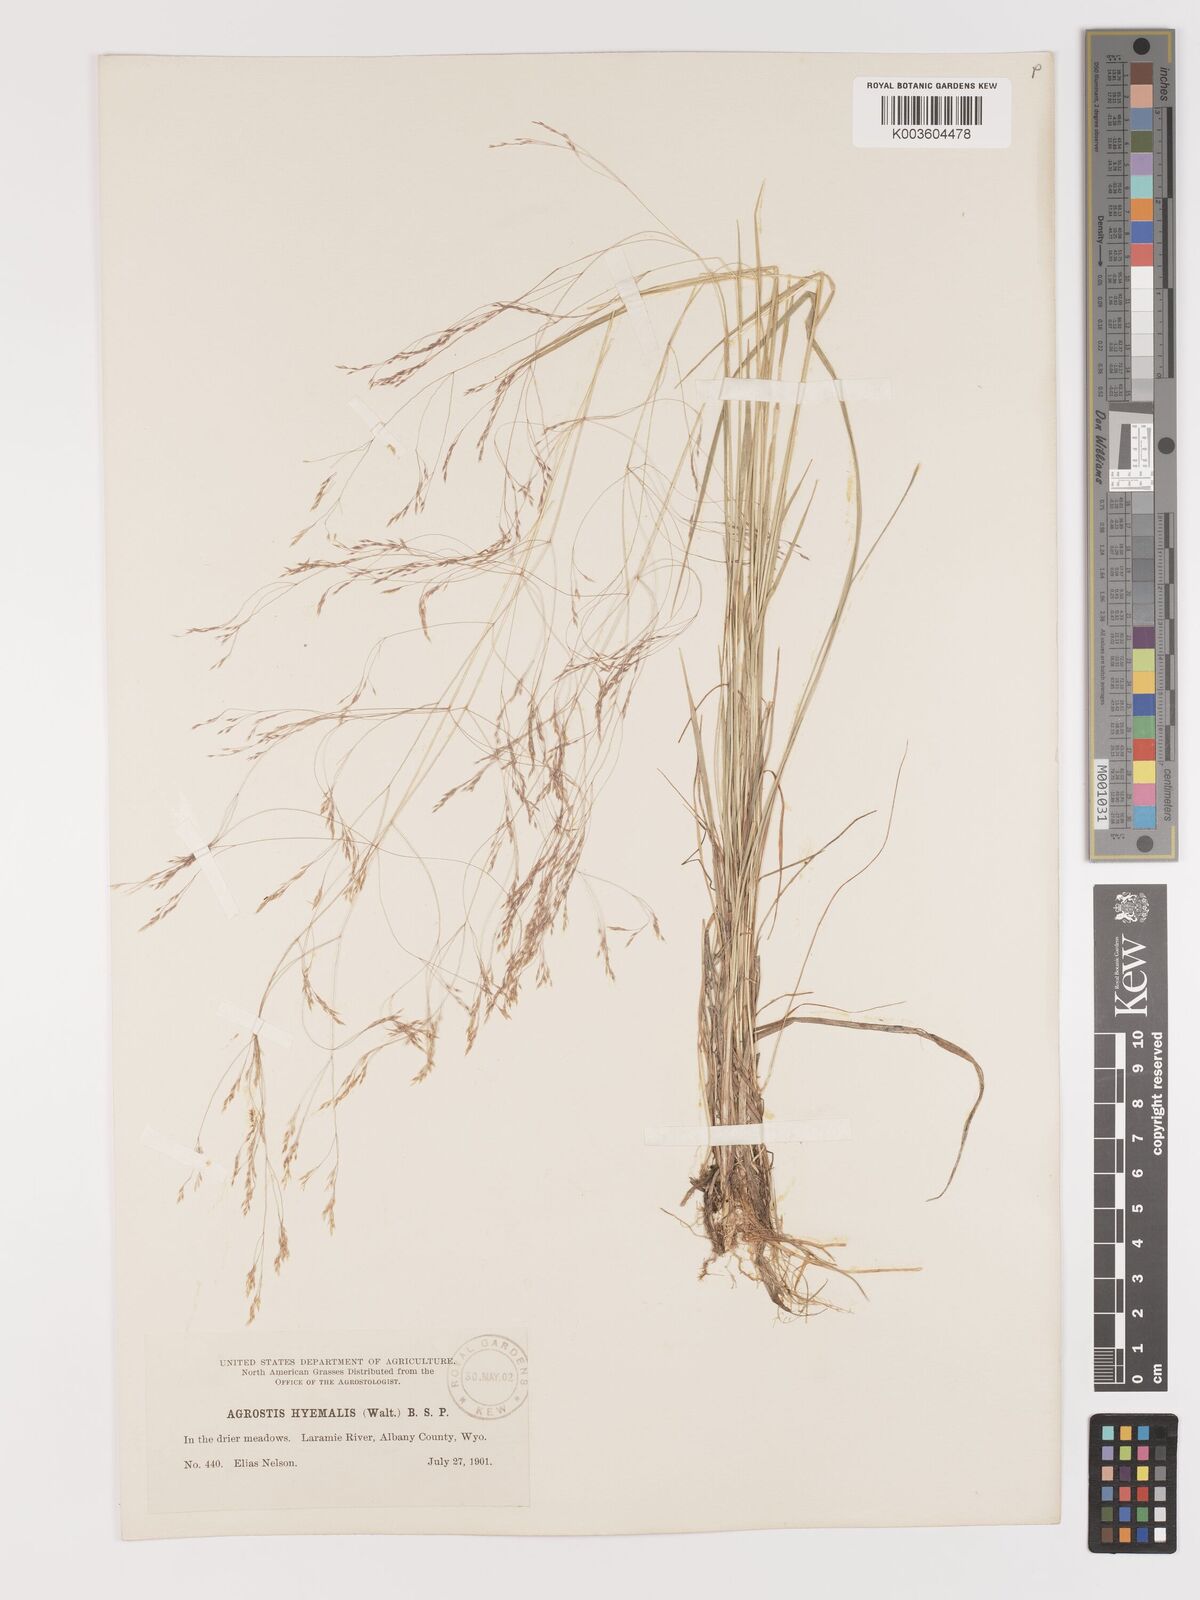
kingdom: Plantae
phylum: Tracheophyta
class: Liliopsida
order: Poales
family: Poaceae
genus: Agrostis
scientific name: Agrostis hyemalis
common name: Small bent
